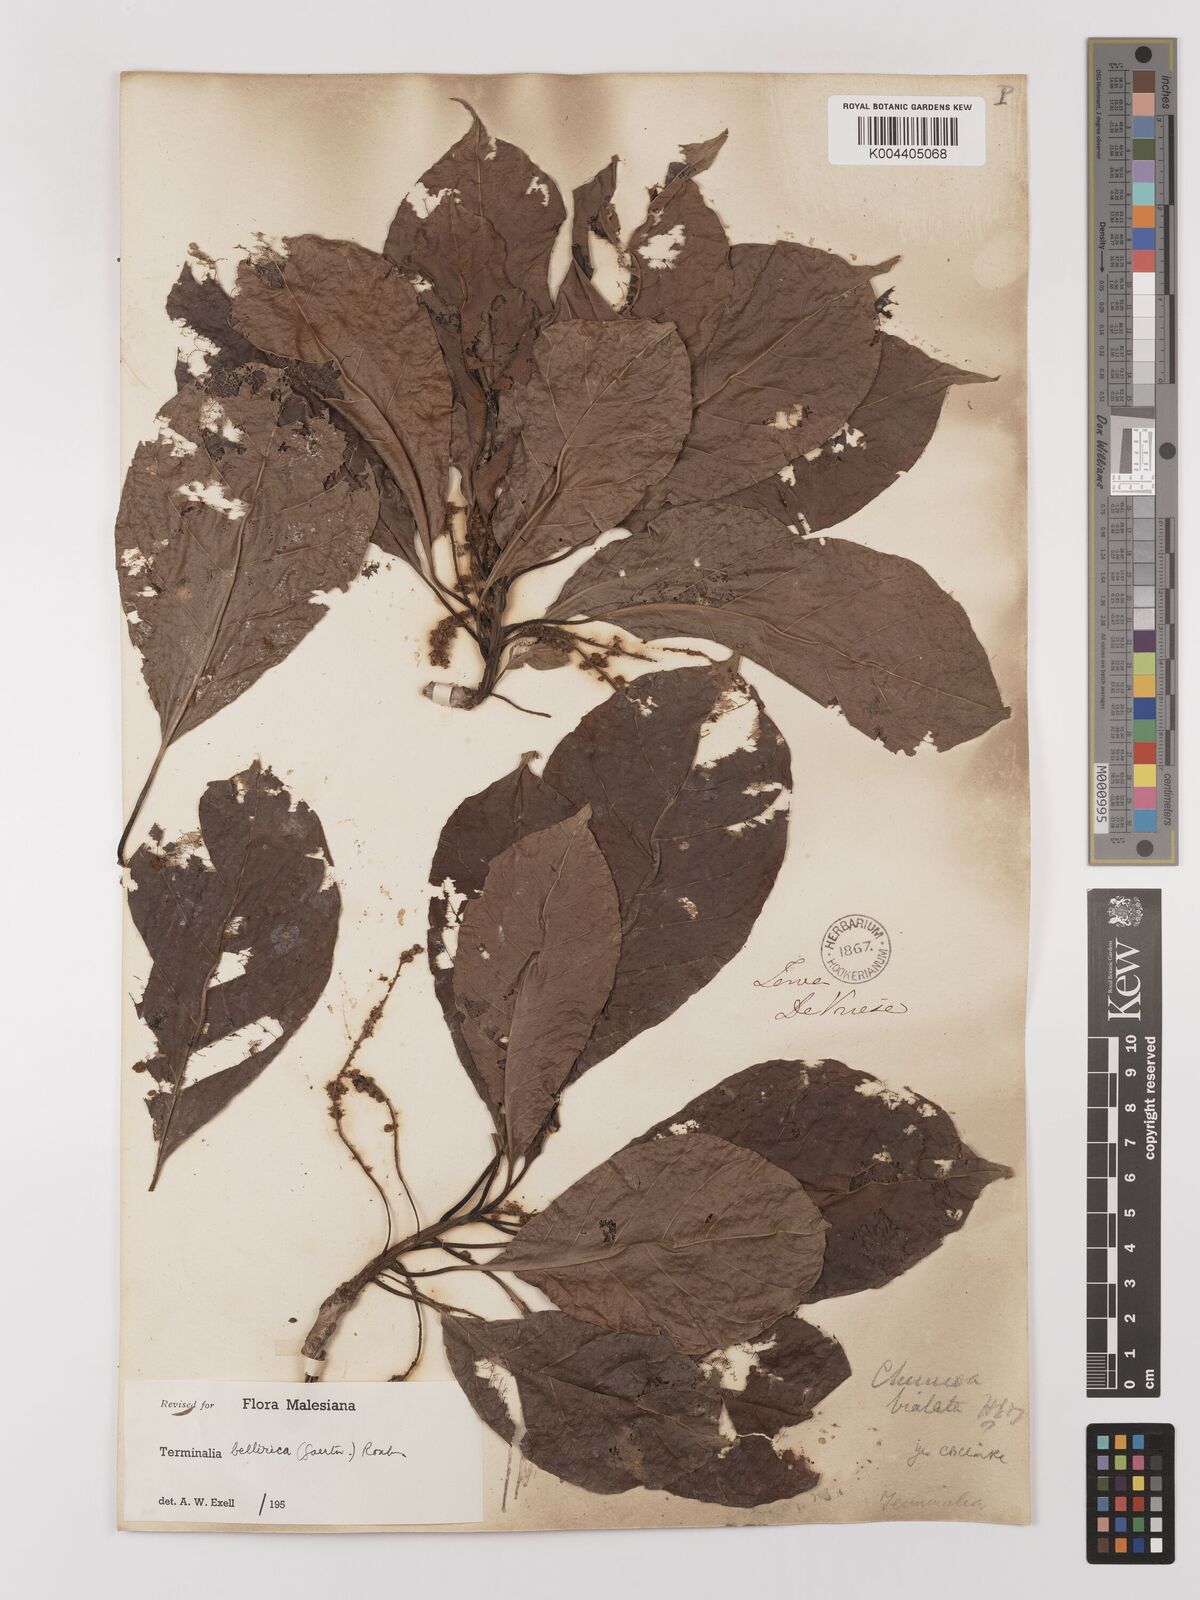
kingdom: Plantae
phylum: Tracheophyta
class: Magnoliopsida
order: Myrtales
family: Combretaceae
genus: Terminalia
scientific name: Terminalia bellirica
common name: Beleric myrobalan
